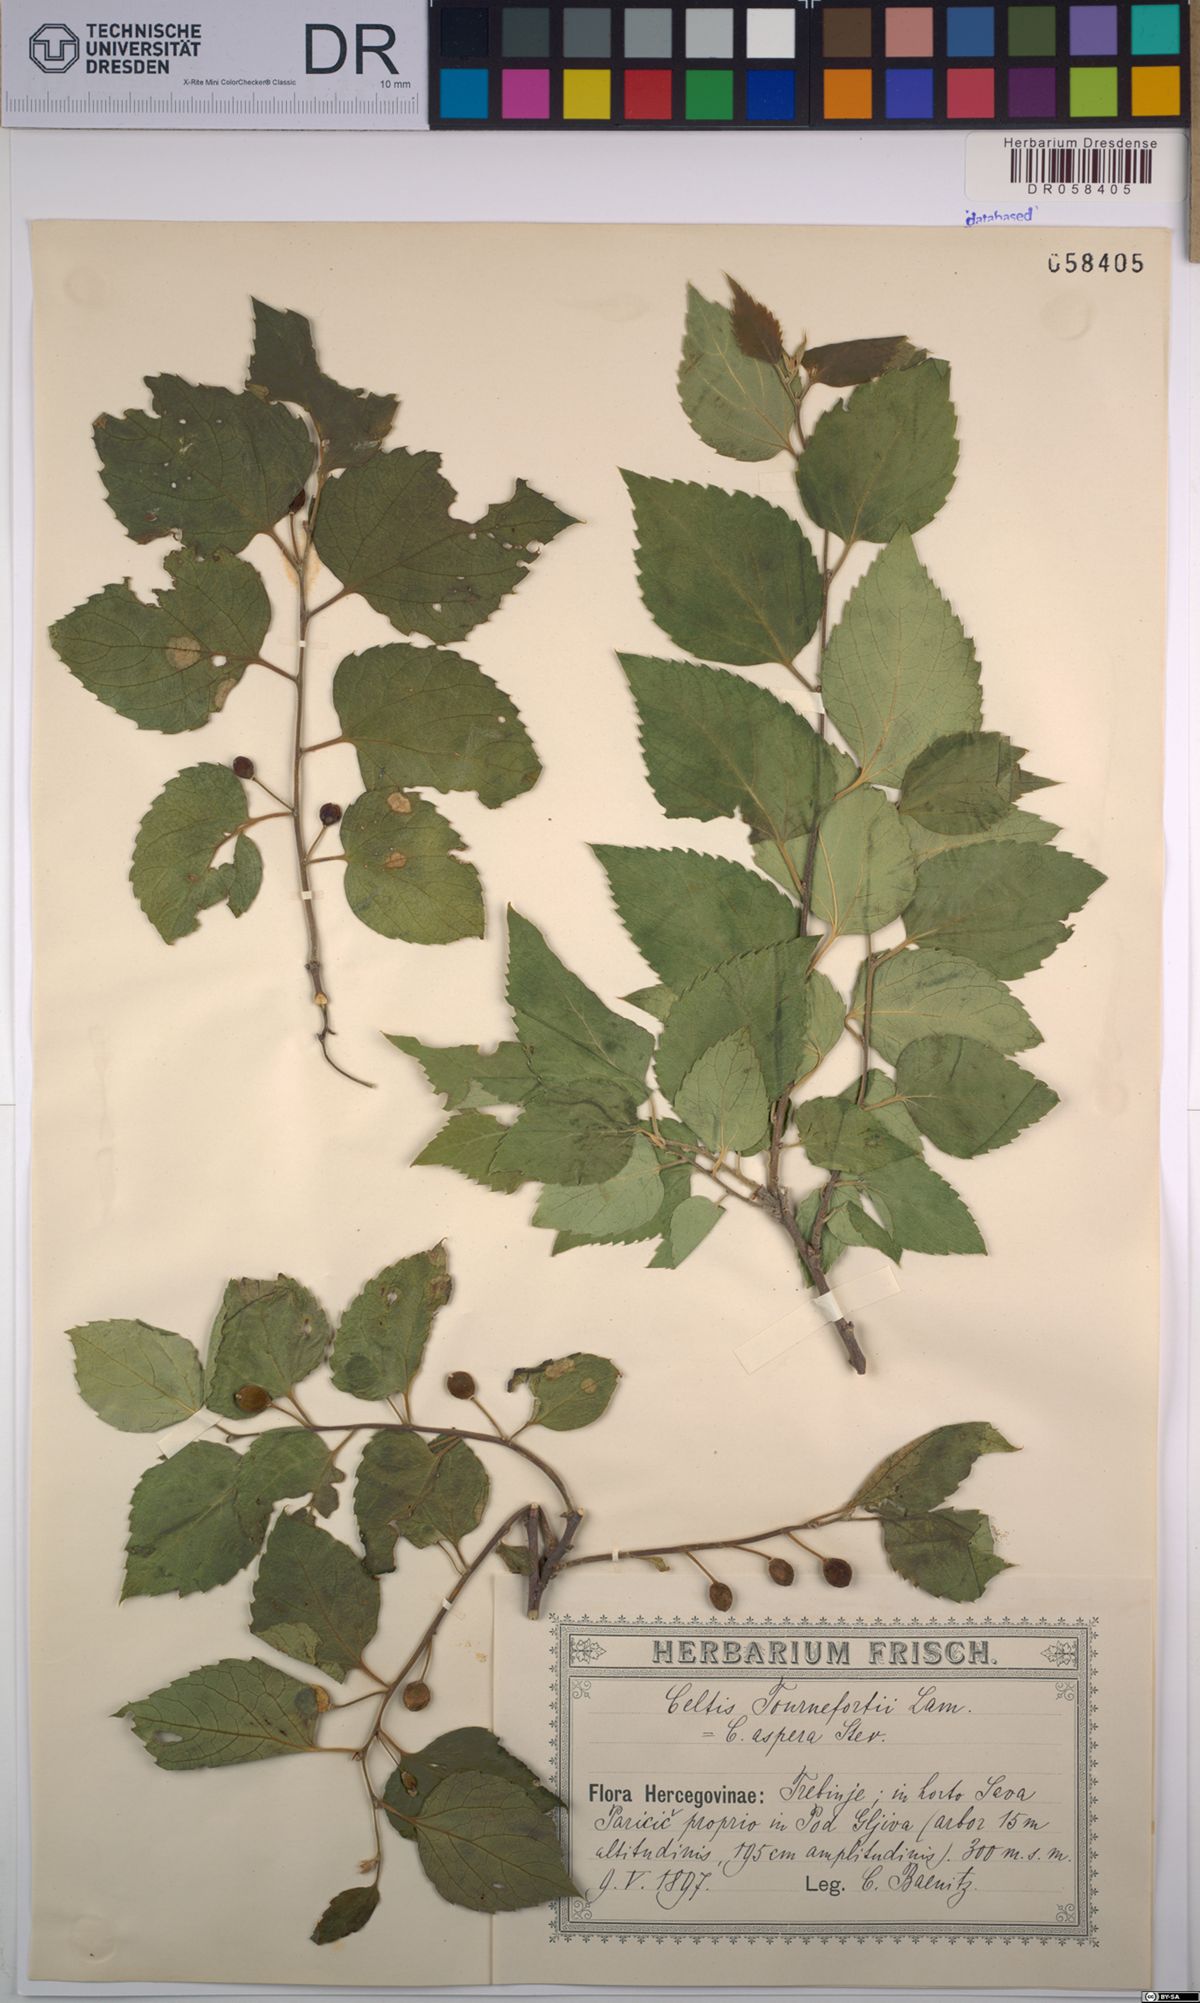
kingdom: Plantae
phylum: Tracheophyta
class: Magnoliopsida
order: Rosales
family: Cannabaceae
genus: Celtis
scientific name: Celtis tournefortii
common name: Oriental hackberry
